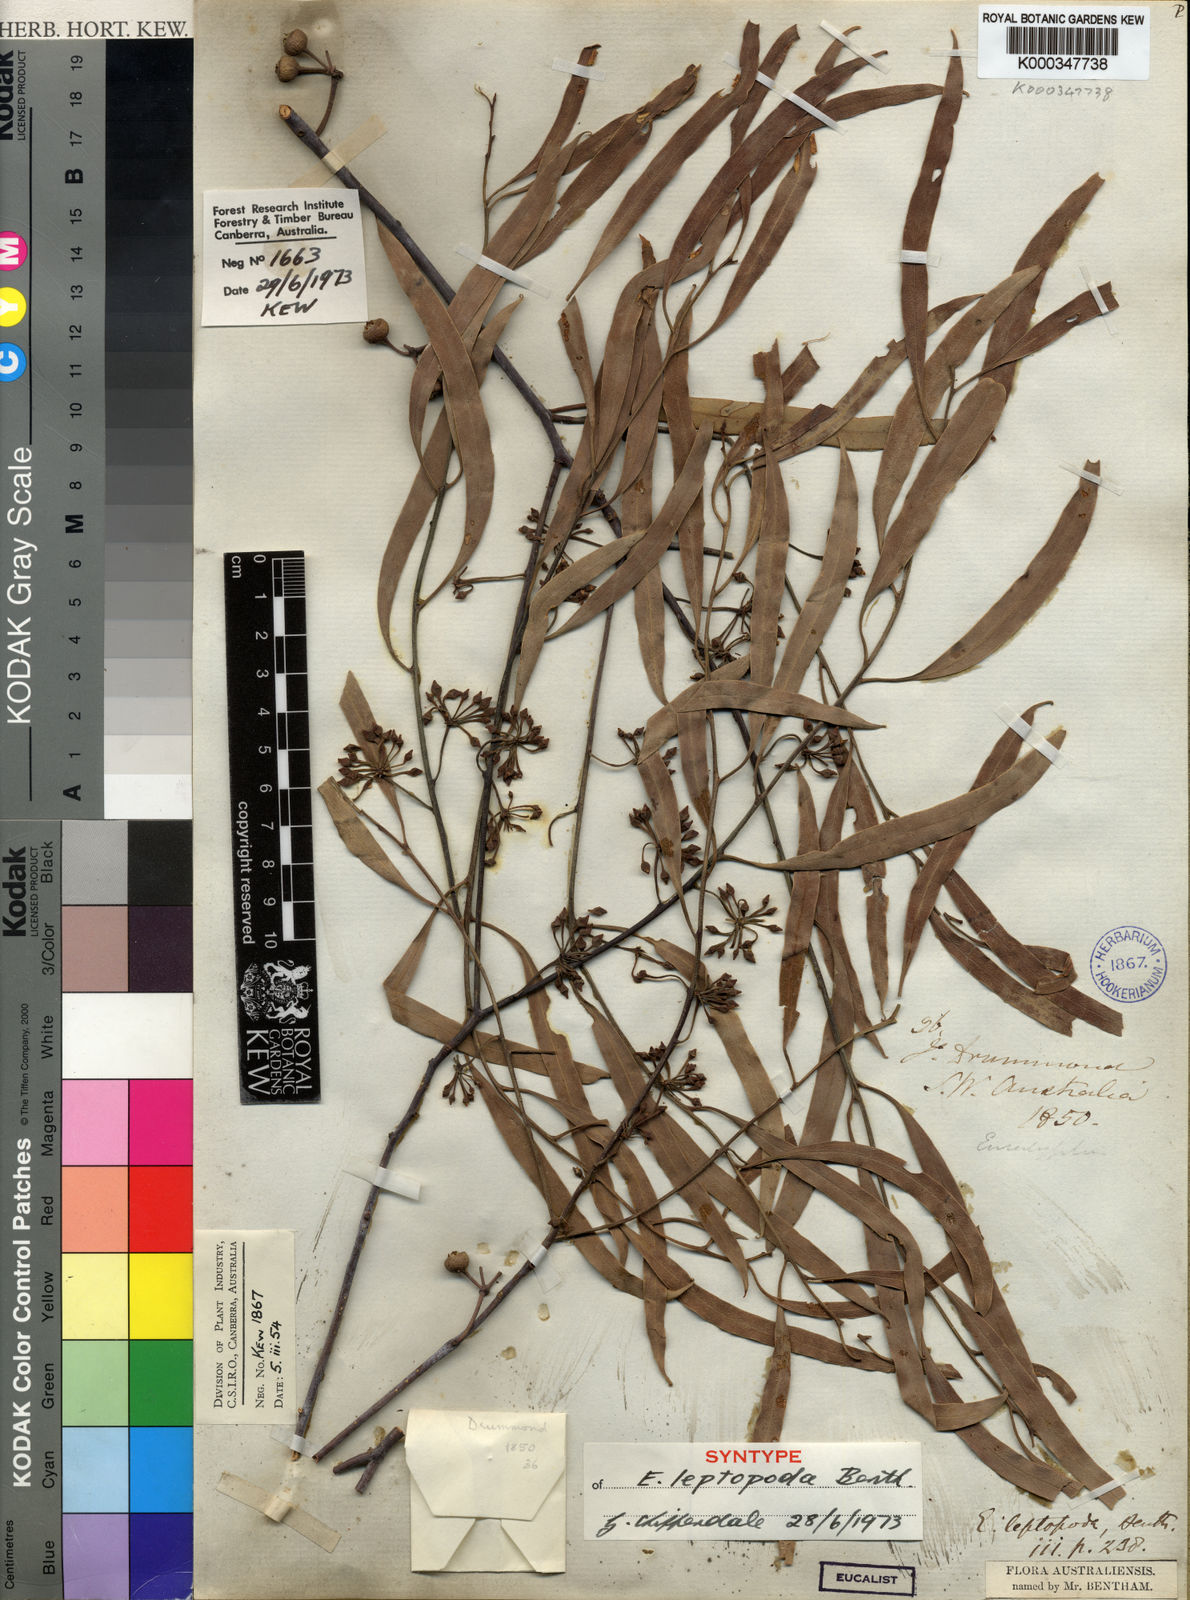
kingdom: Plantae
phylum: Tracheophyta
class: Magnoliopsida
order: Myrtales
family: Myrtaceae
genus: Eucalyptus
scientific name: Eucalyptus leptopoda
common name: Tammin mallee
